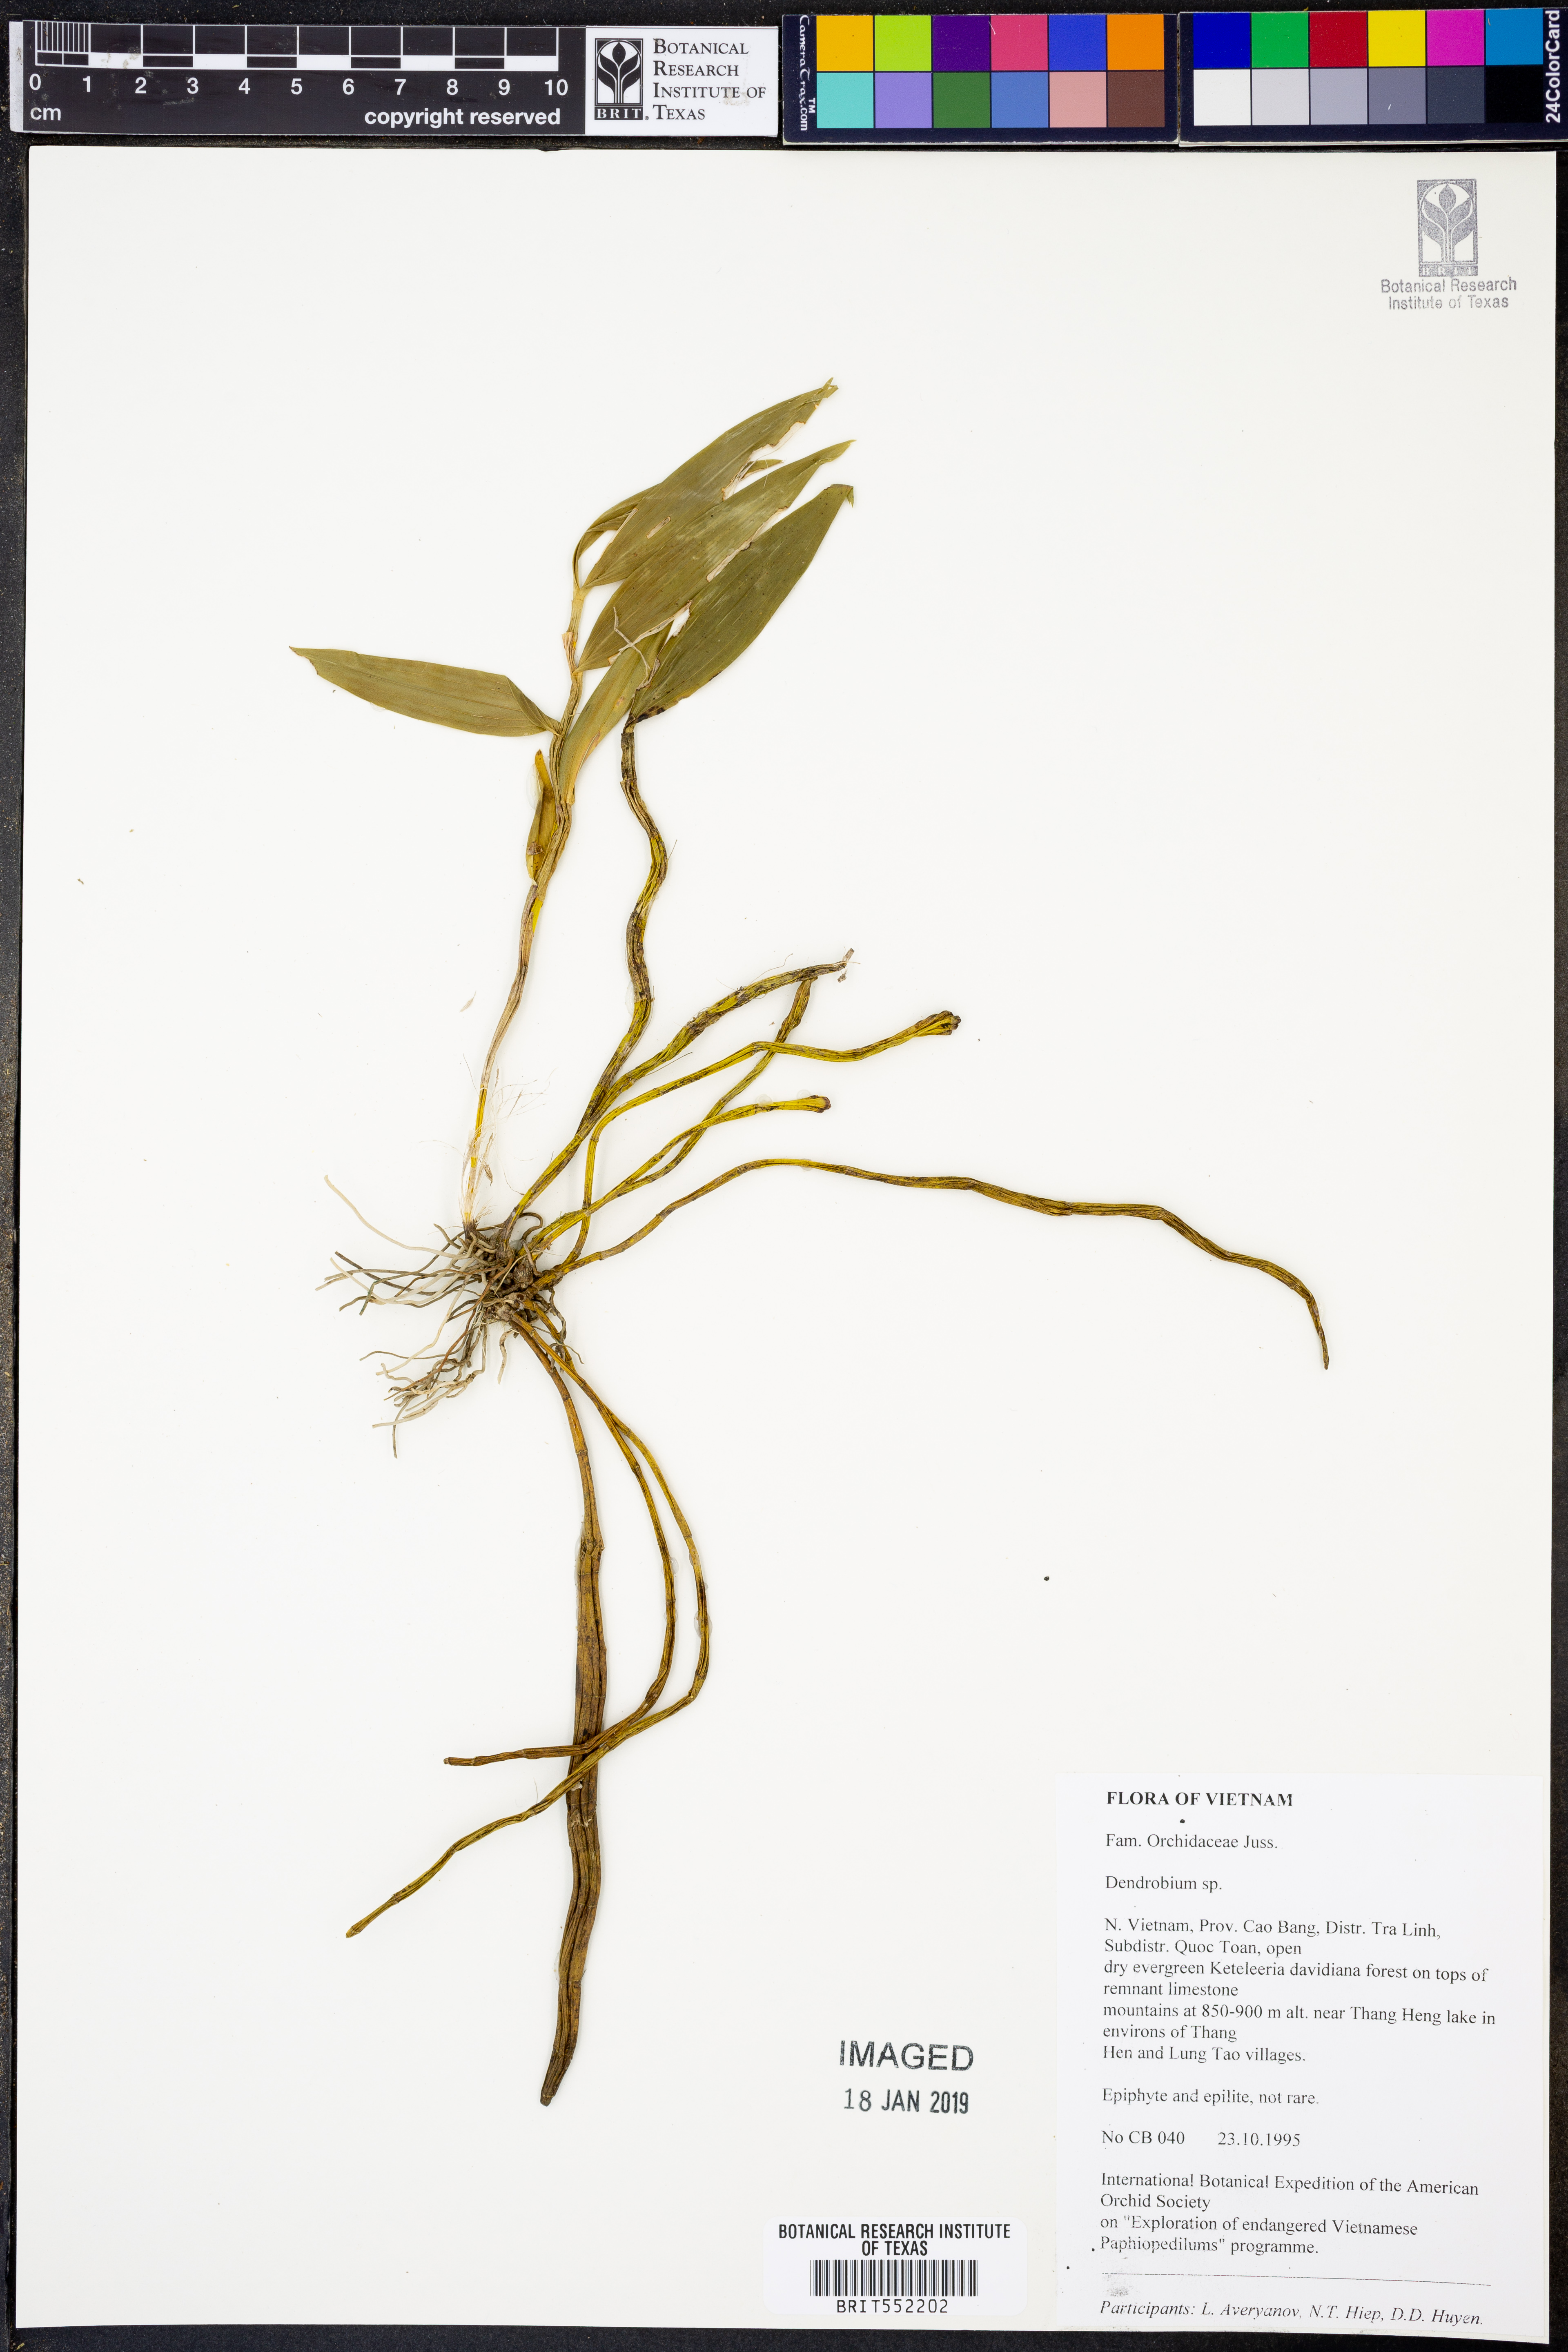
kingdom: Plantae
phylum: Tracheophyta
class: Liliopsida
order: Asparagales
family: Orchidaceae
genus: Dendrobium
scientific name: Dendrobium
